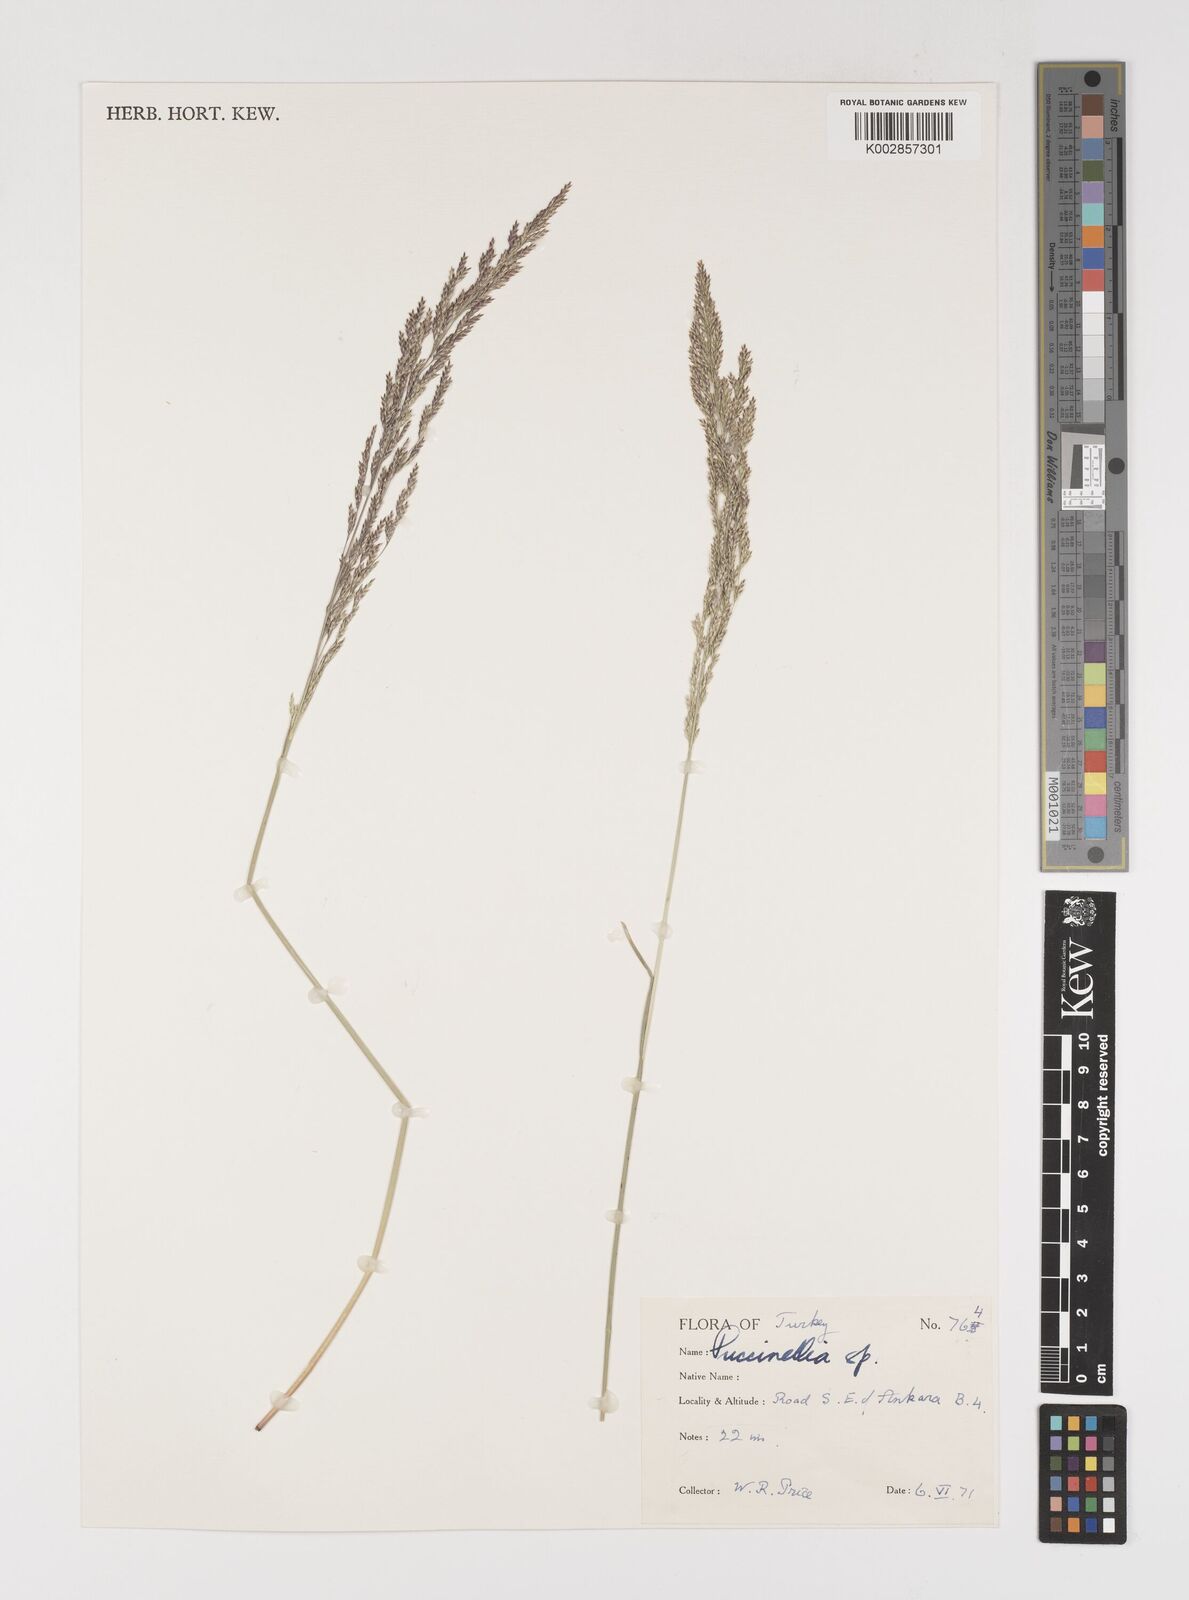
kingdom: Plantae
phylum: Tracheophyta
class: Liliopsida
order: Poales
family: Poaceae
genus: Puccinellia
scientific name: Puccinellia
